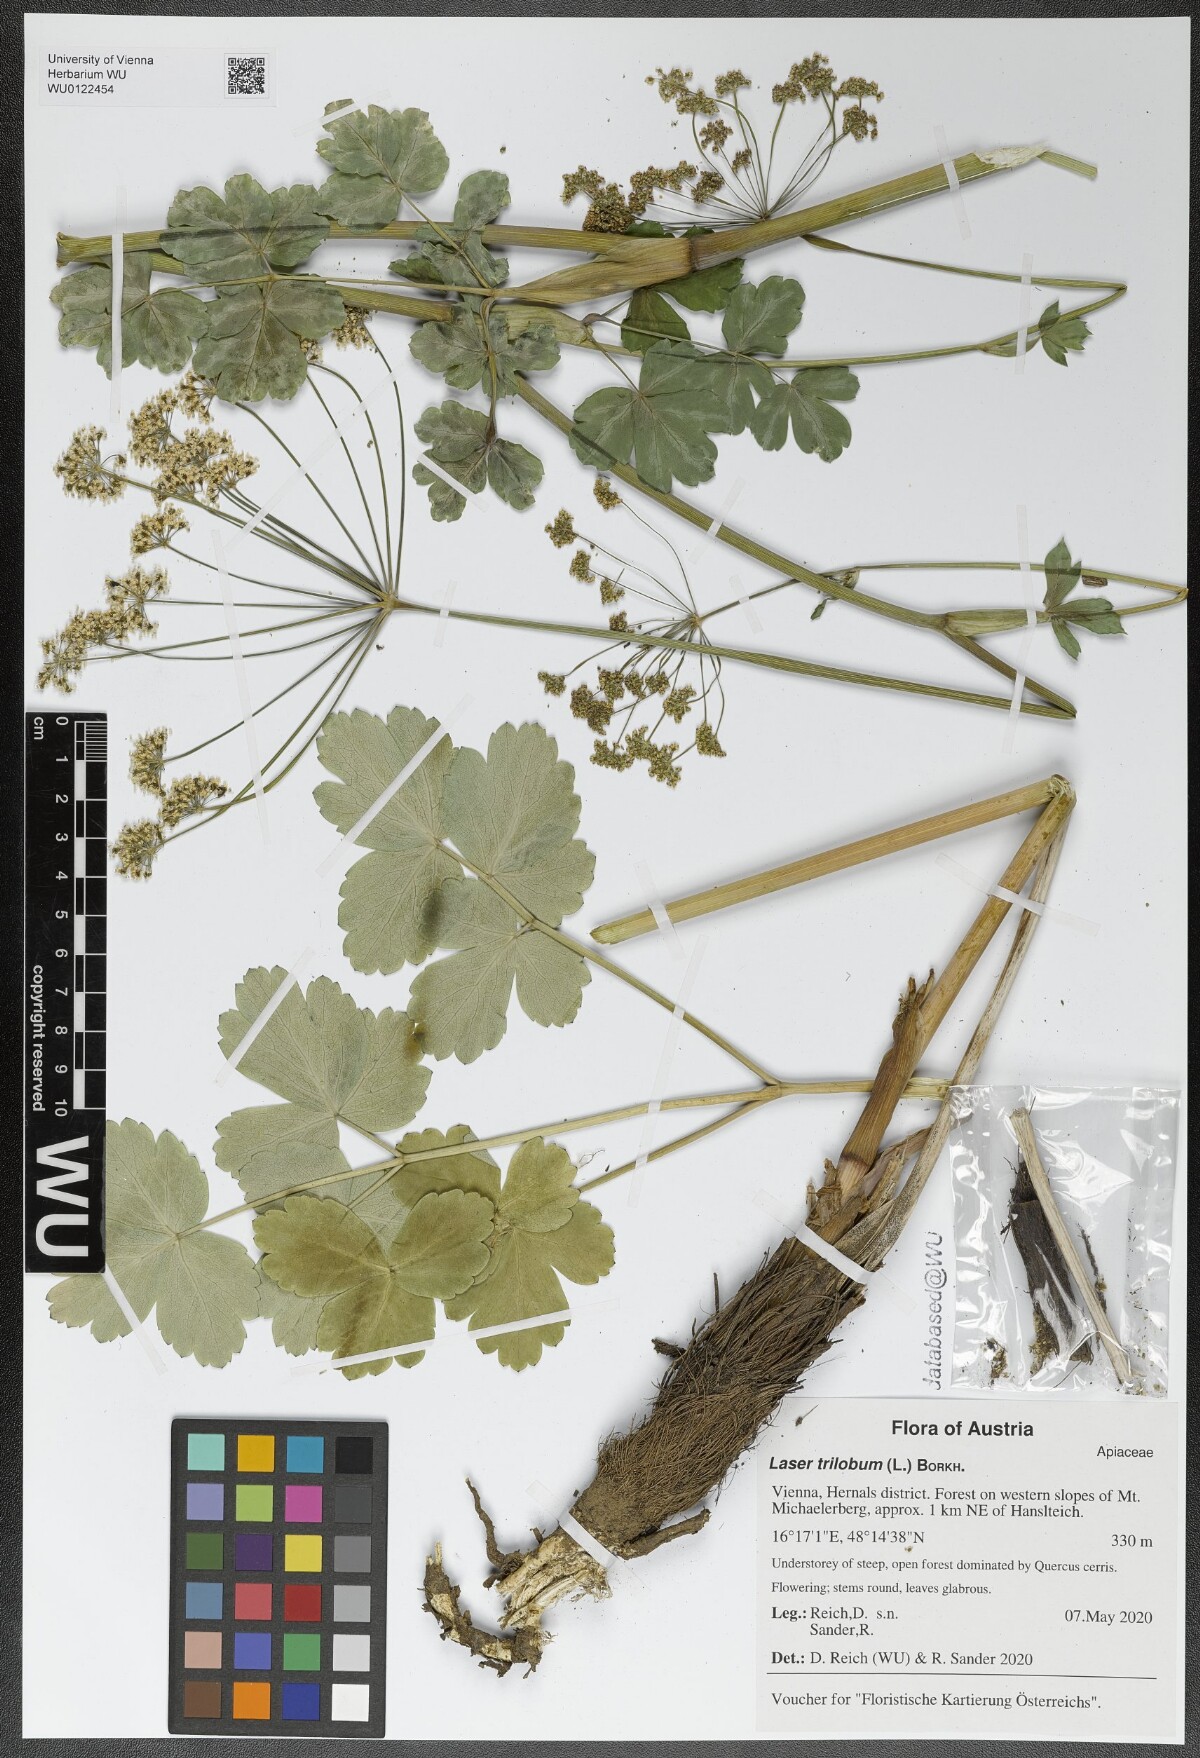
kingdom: Plantae
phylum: Tracheophyta
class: Magnoliopsida
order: Apiales
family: Apiaceae
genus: Laser
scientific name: Laser trilobum
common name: Laser
